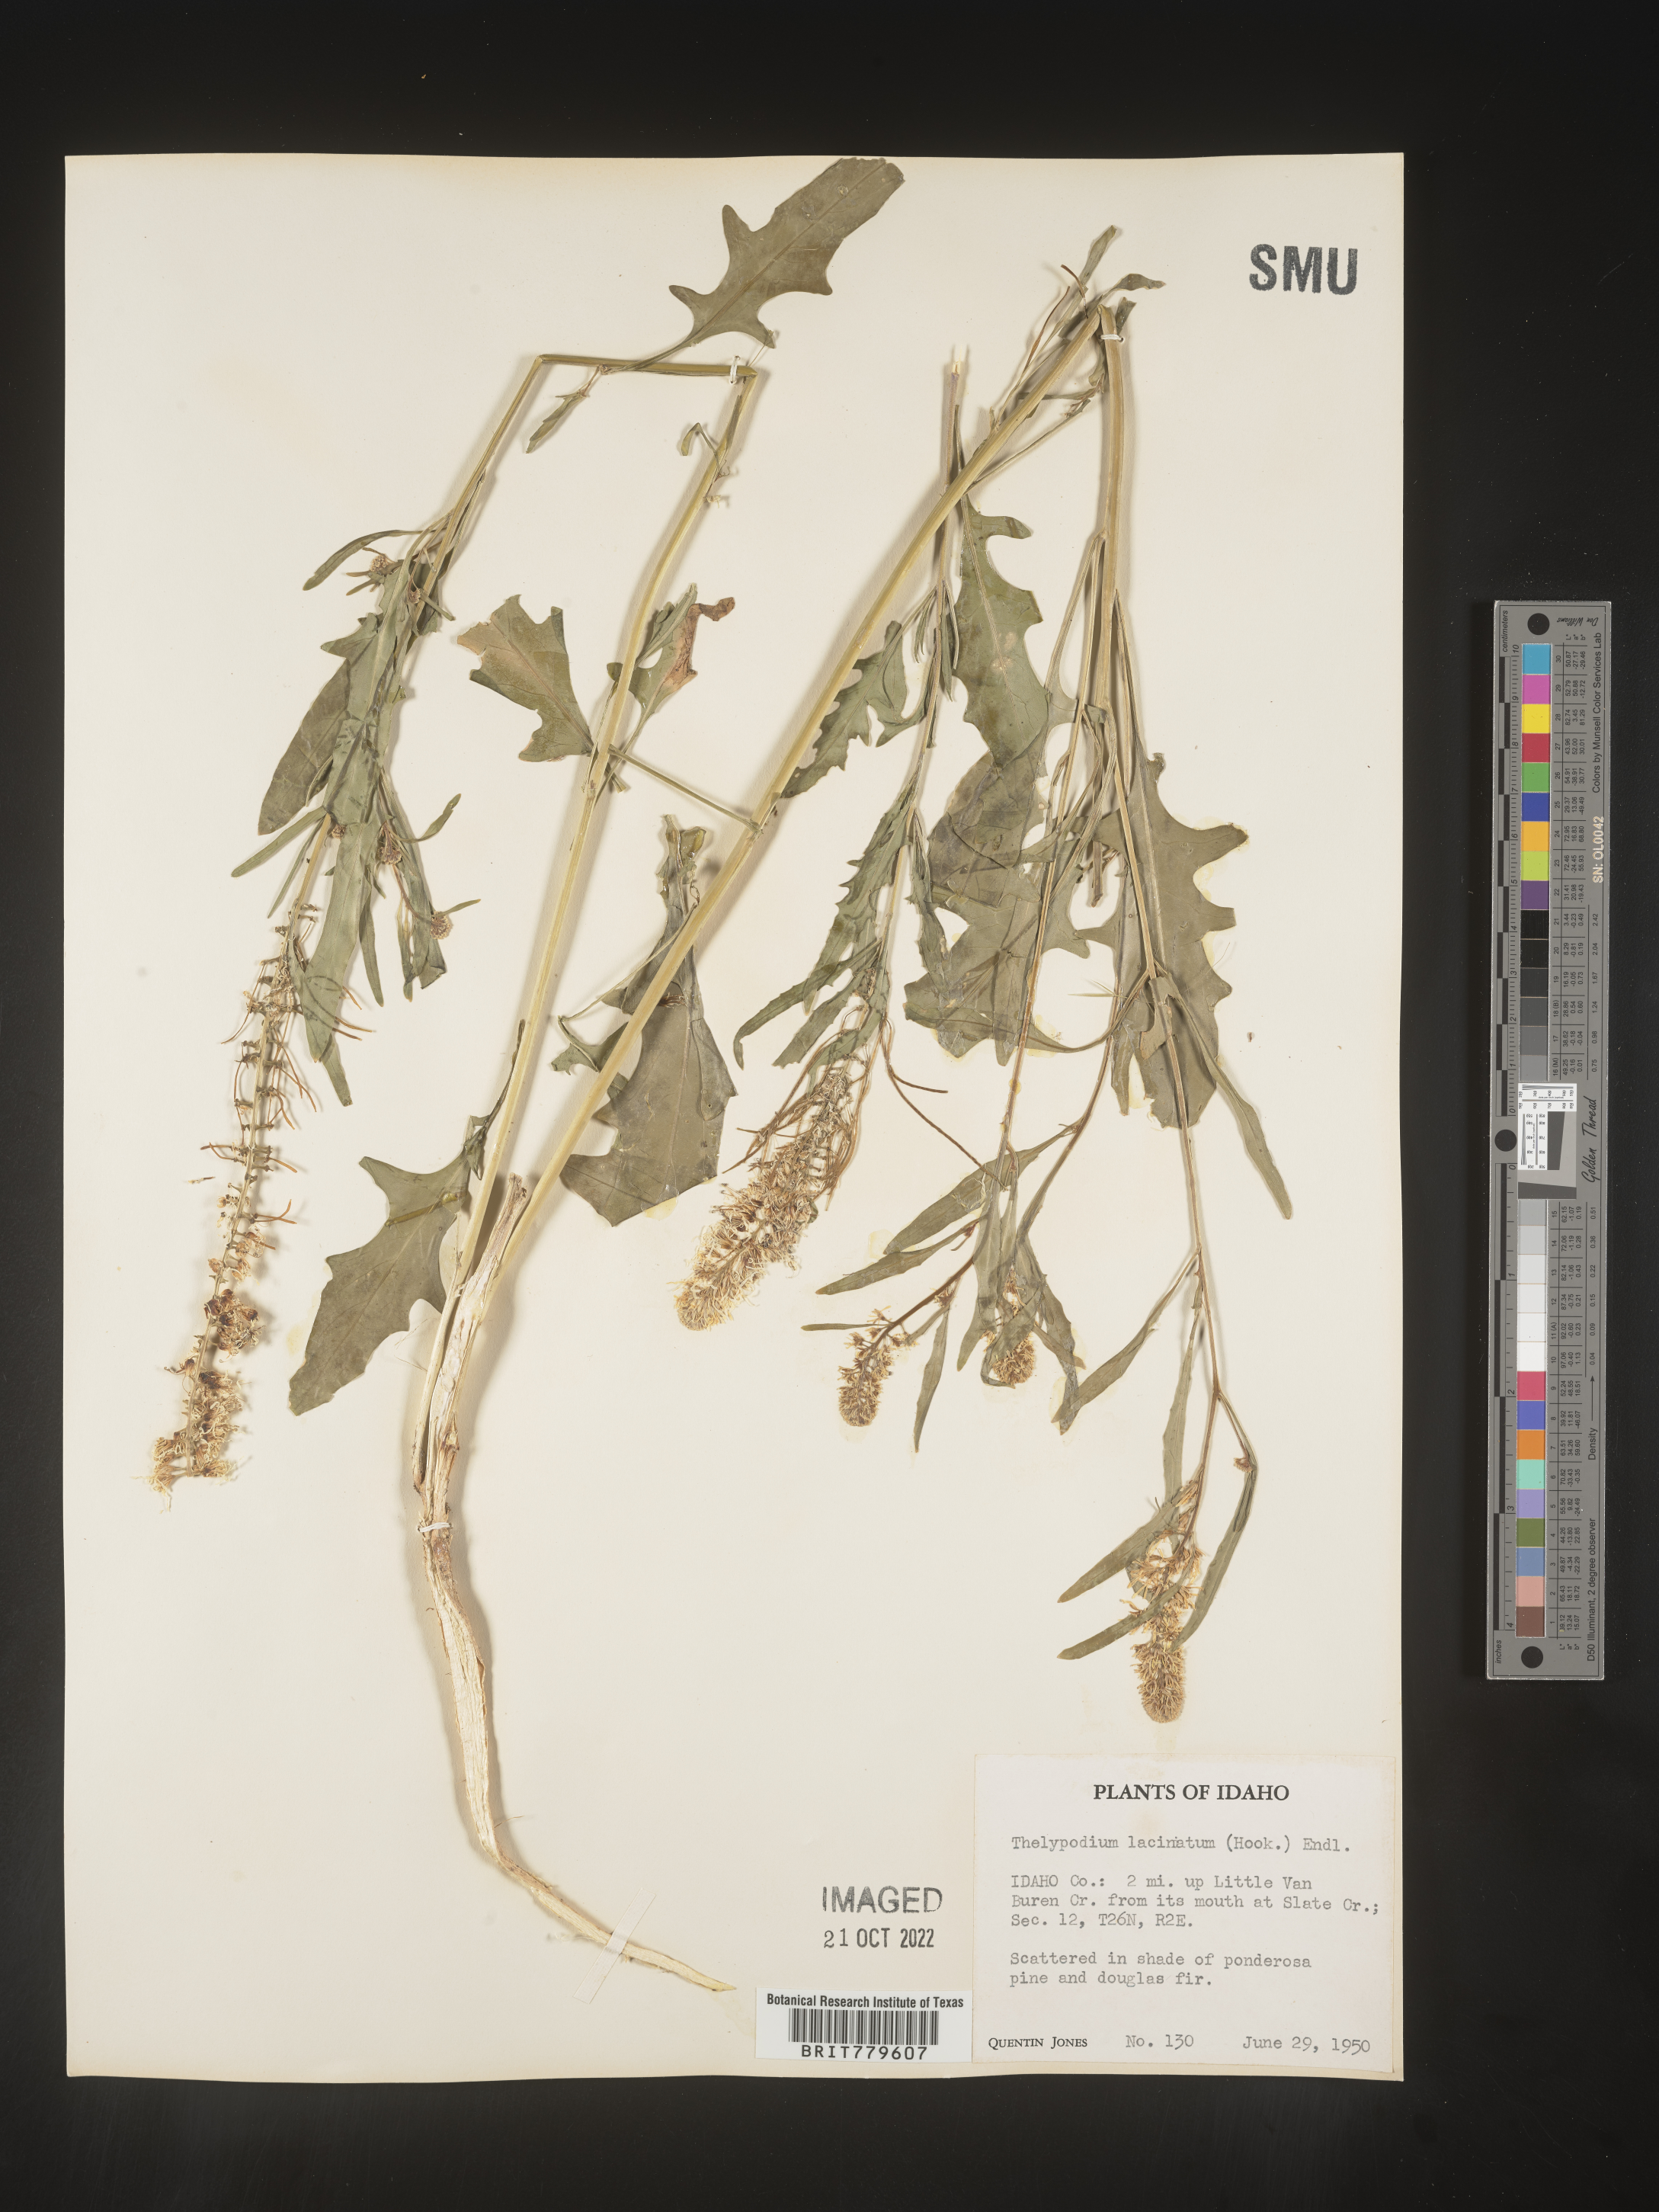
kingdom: Plantae
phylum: Tracheophyta
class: Magnoliopsida
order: Brassicales
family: Brassicaceae
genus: Thelypodium
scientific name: Thelypodium
